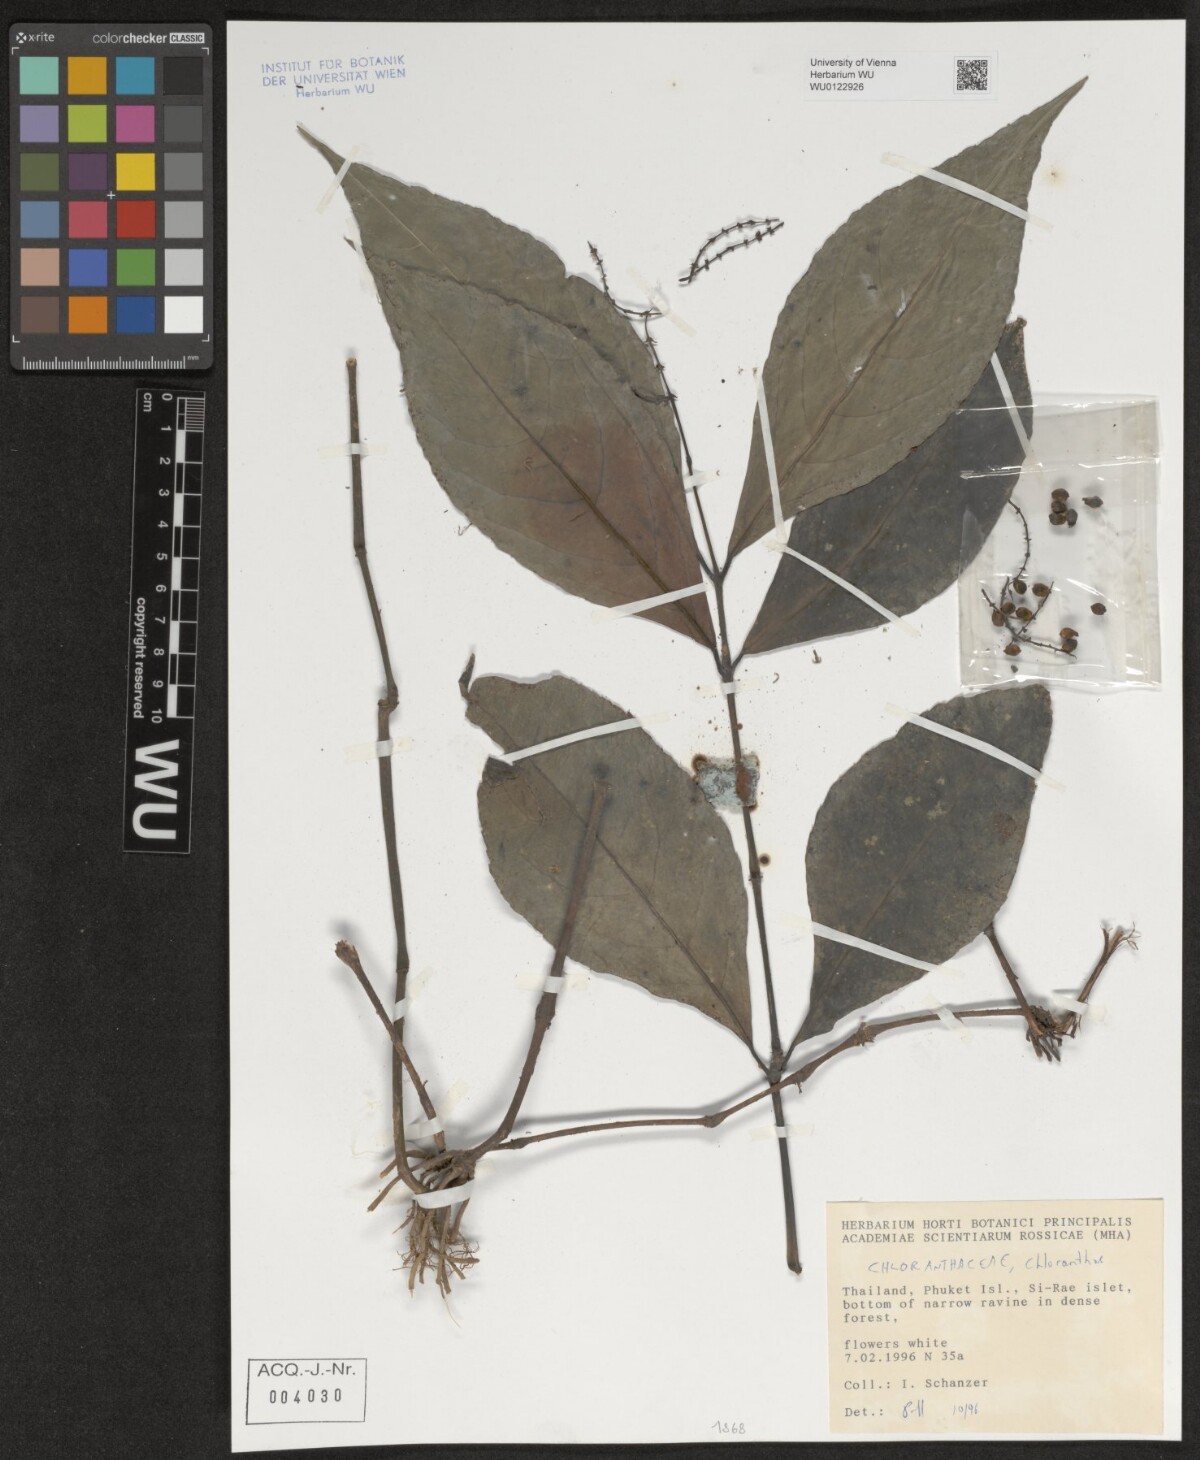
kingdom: Plantae
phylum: Tracheophyta
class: Magnoliopsida
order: Chloranthales
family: Chloranthaceae
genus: Chloranthus
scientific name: Chloranthus
